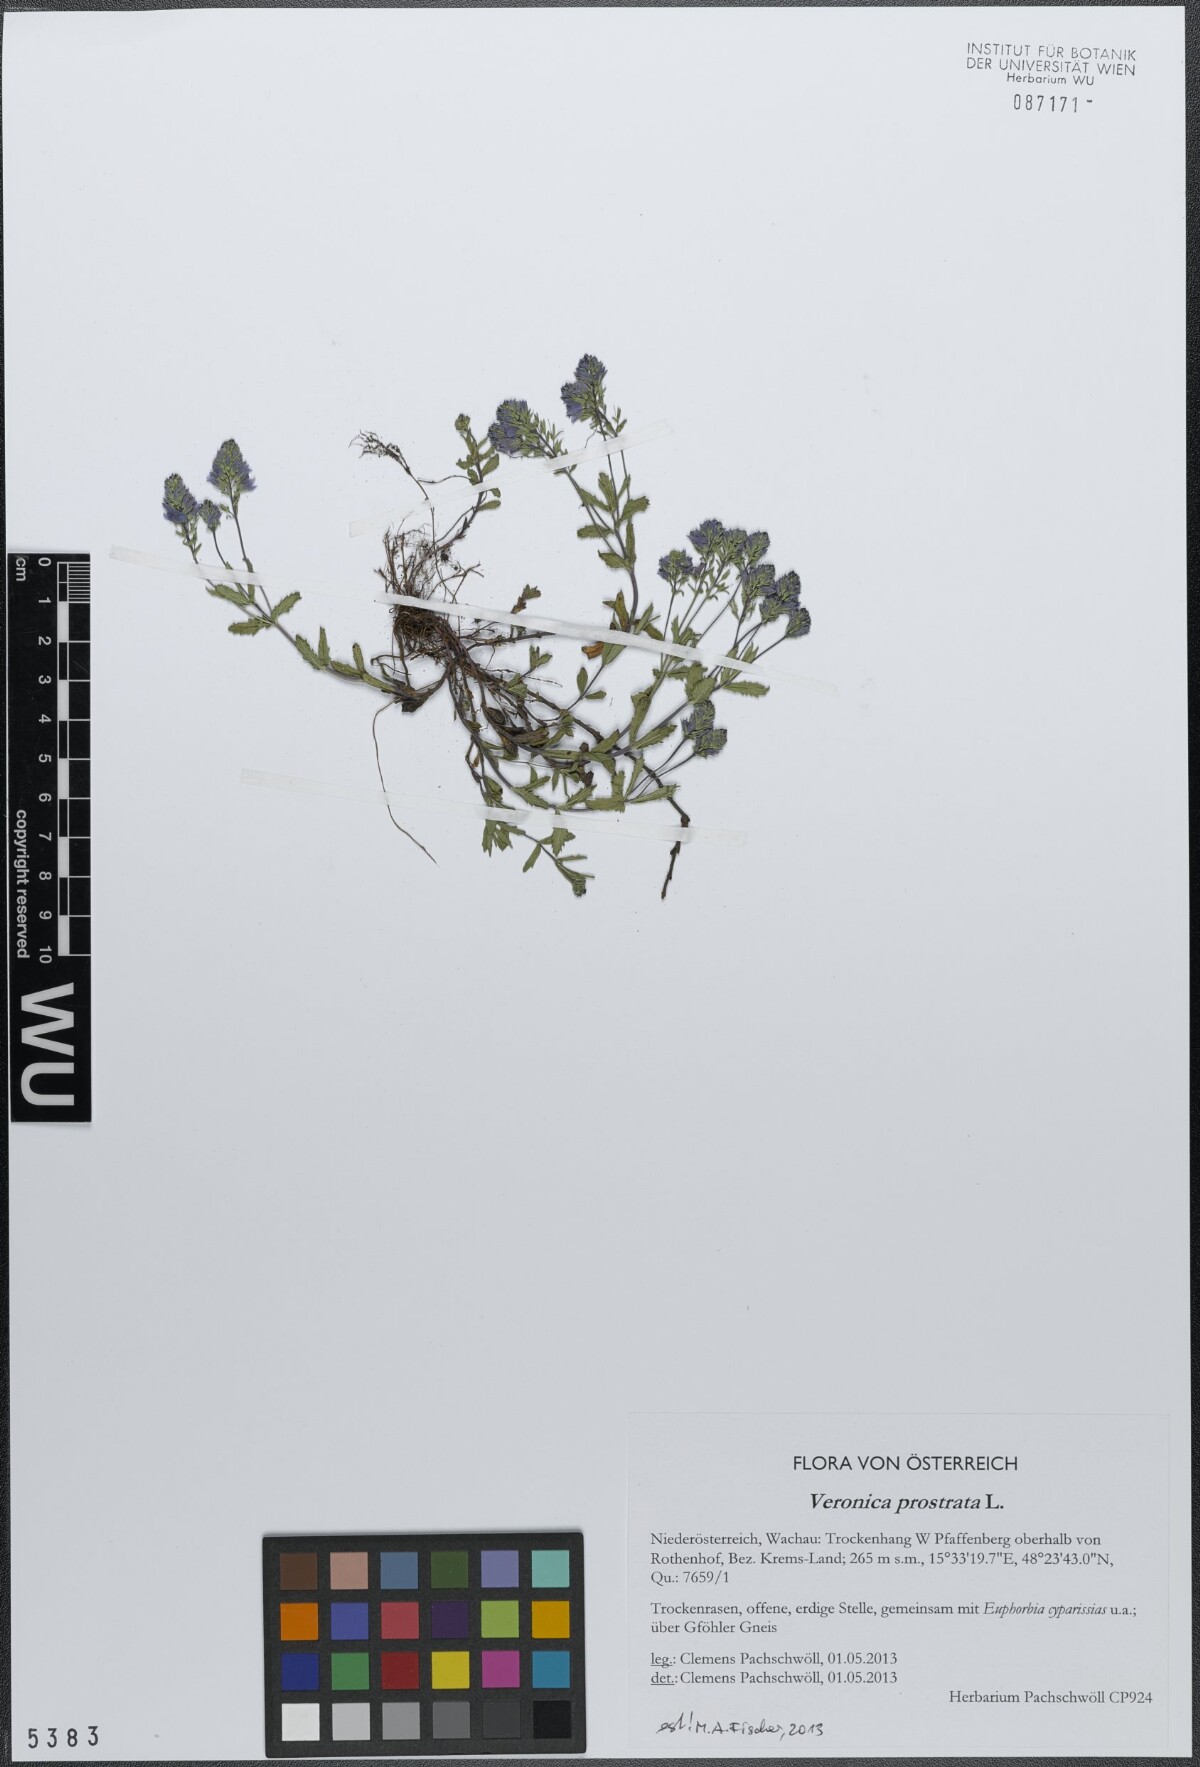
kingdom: Plantae
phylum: Tracheophyta
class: Magnoliopsida
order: Lamiales
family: Plantaginaceae
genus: Veronica
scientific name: Veronica prostrata
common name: Prostrate speedwell
